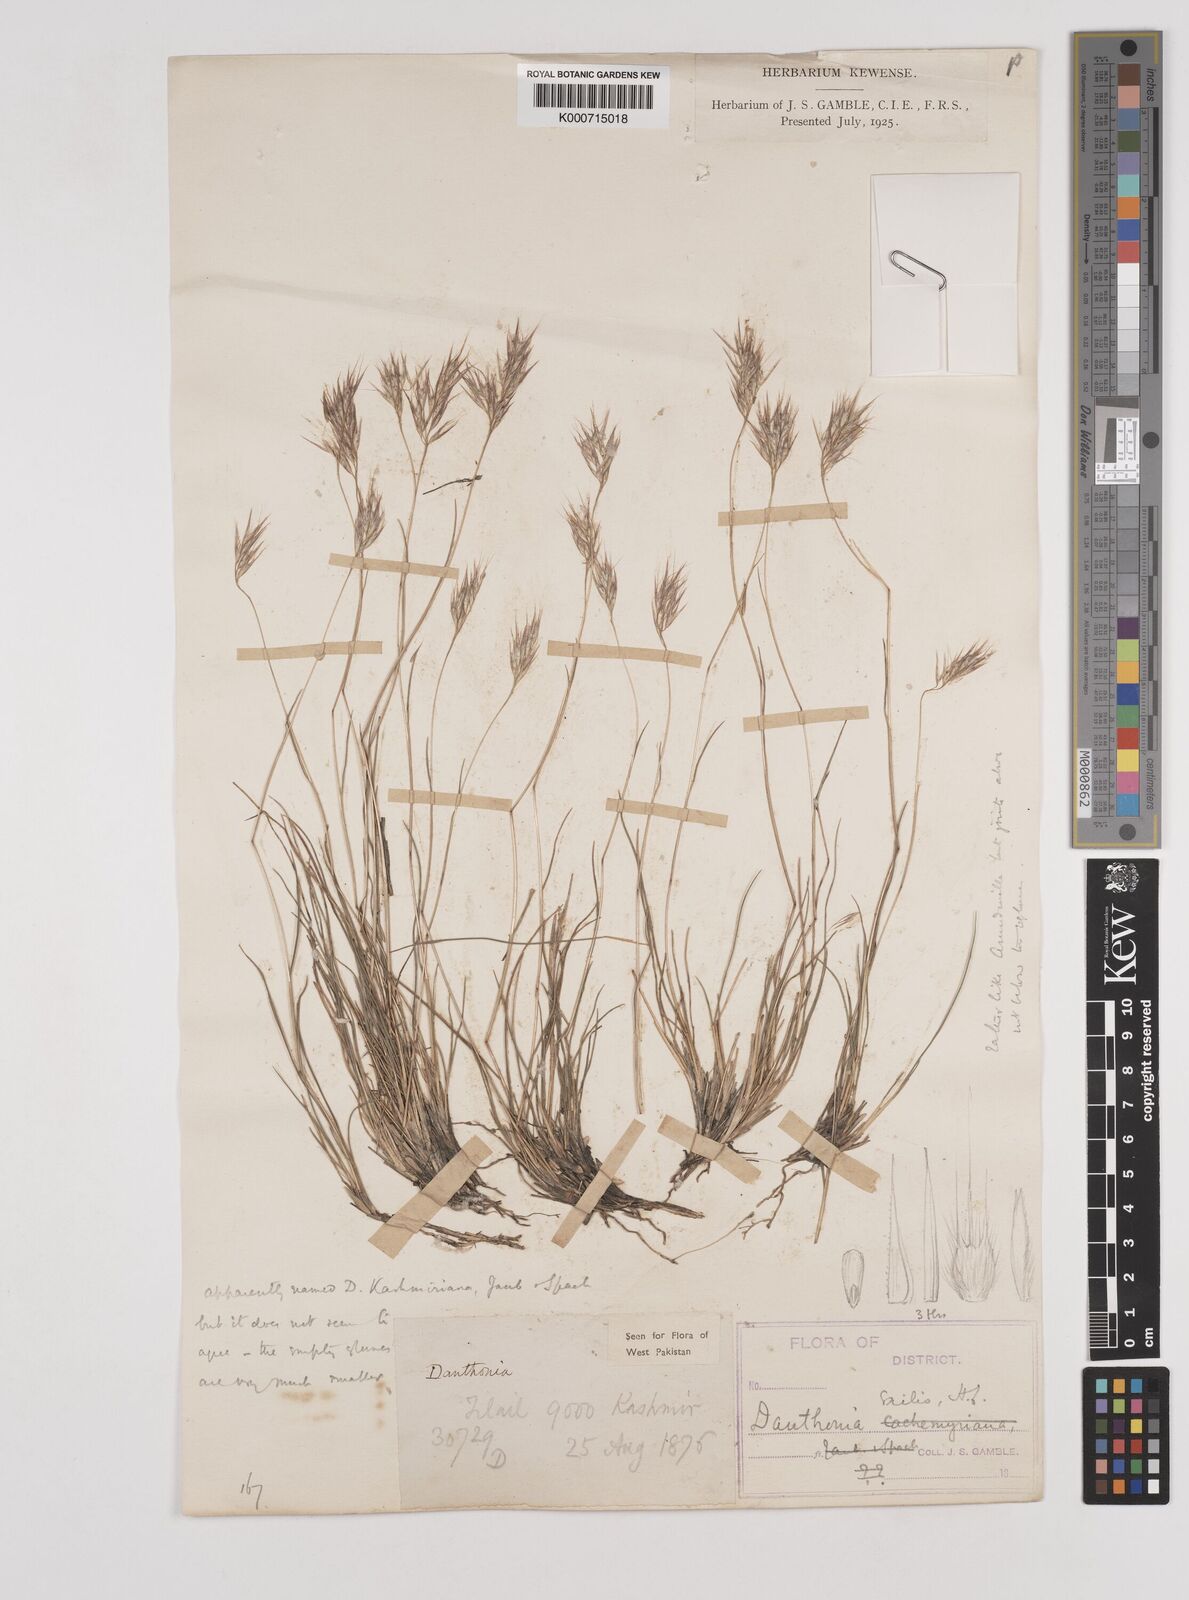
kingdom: Plantae
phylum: Tracheophyta
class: Liliopsida
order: Poales
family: Poaceae
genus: Rytidosperma
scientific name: Rytidosperma
